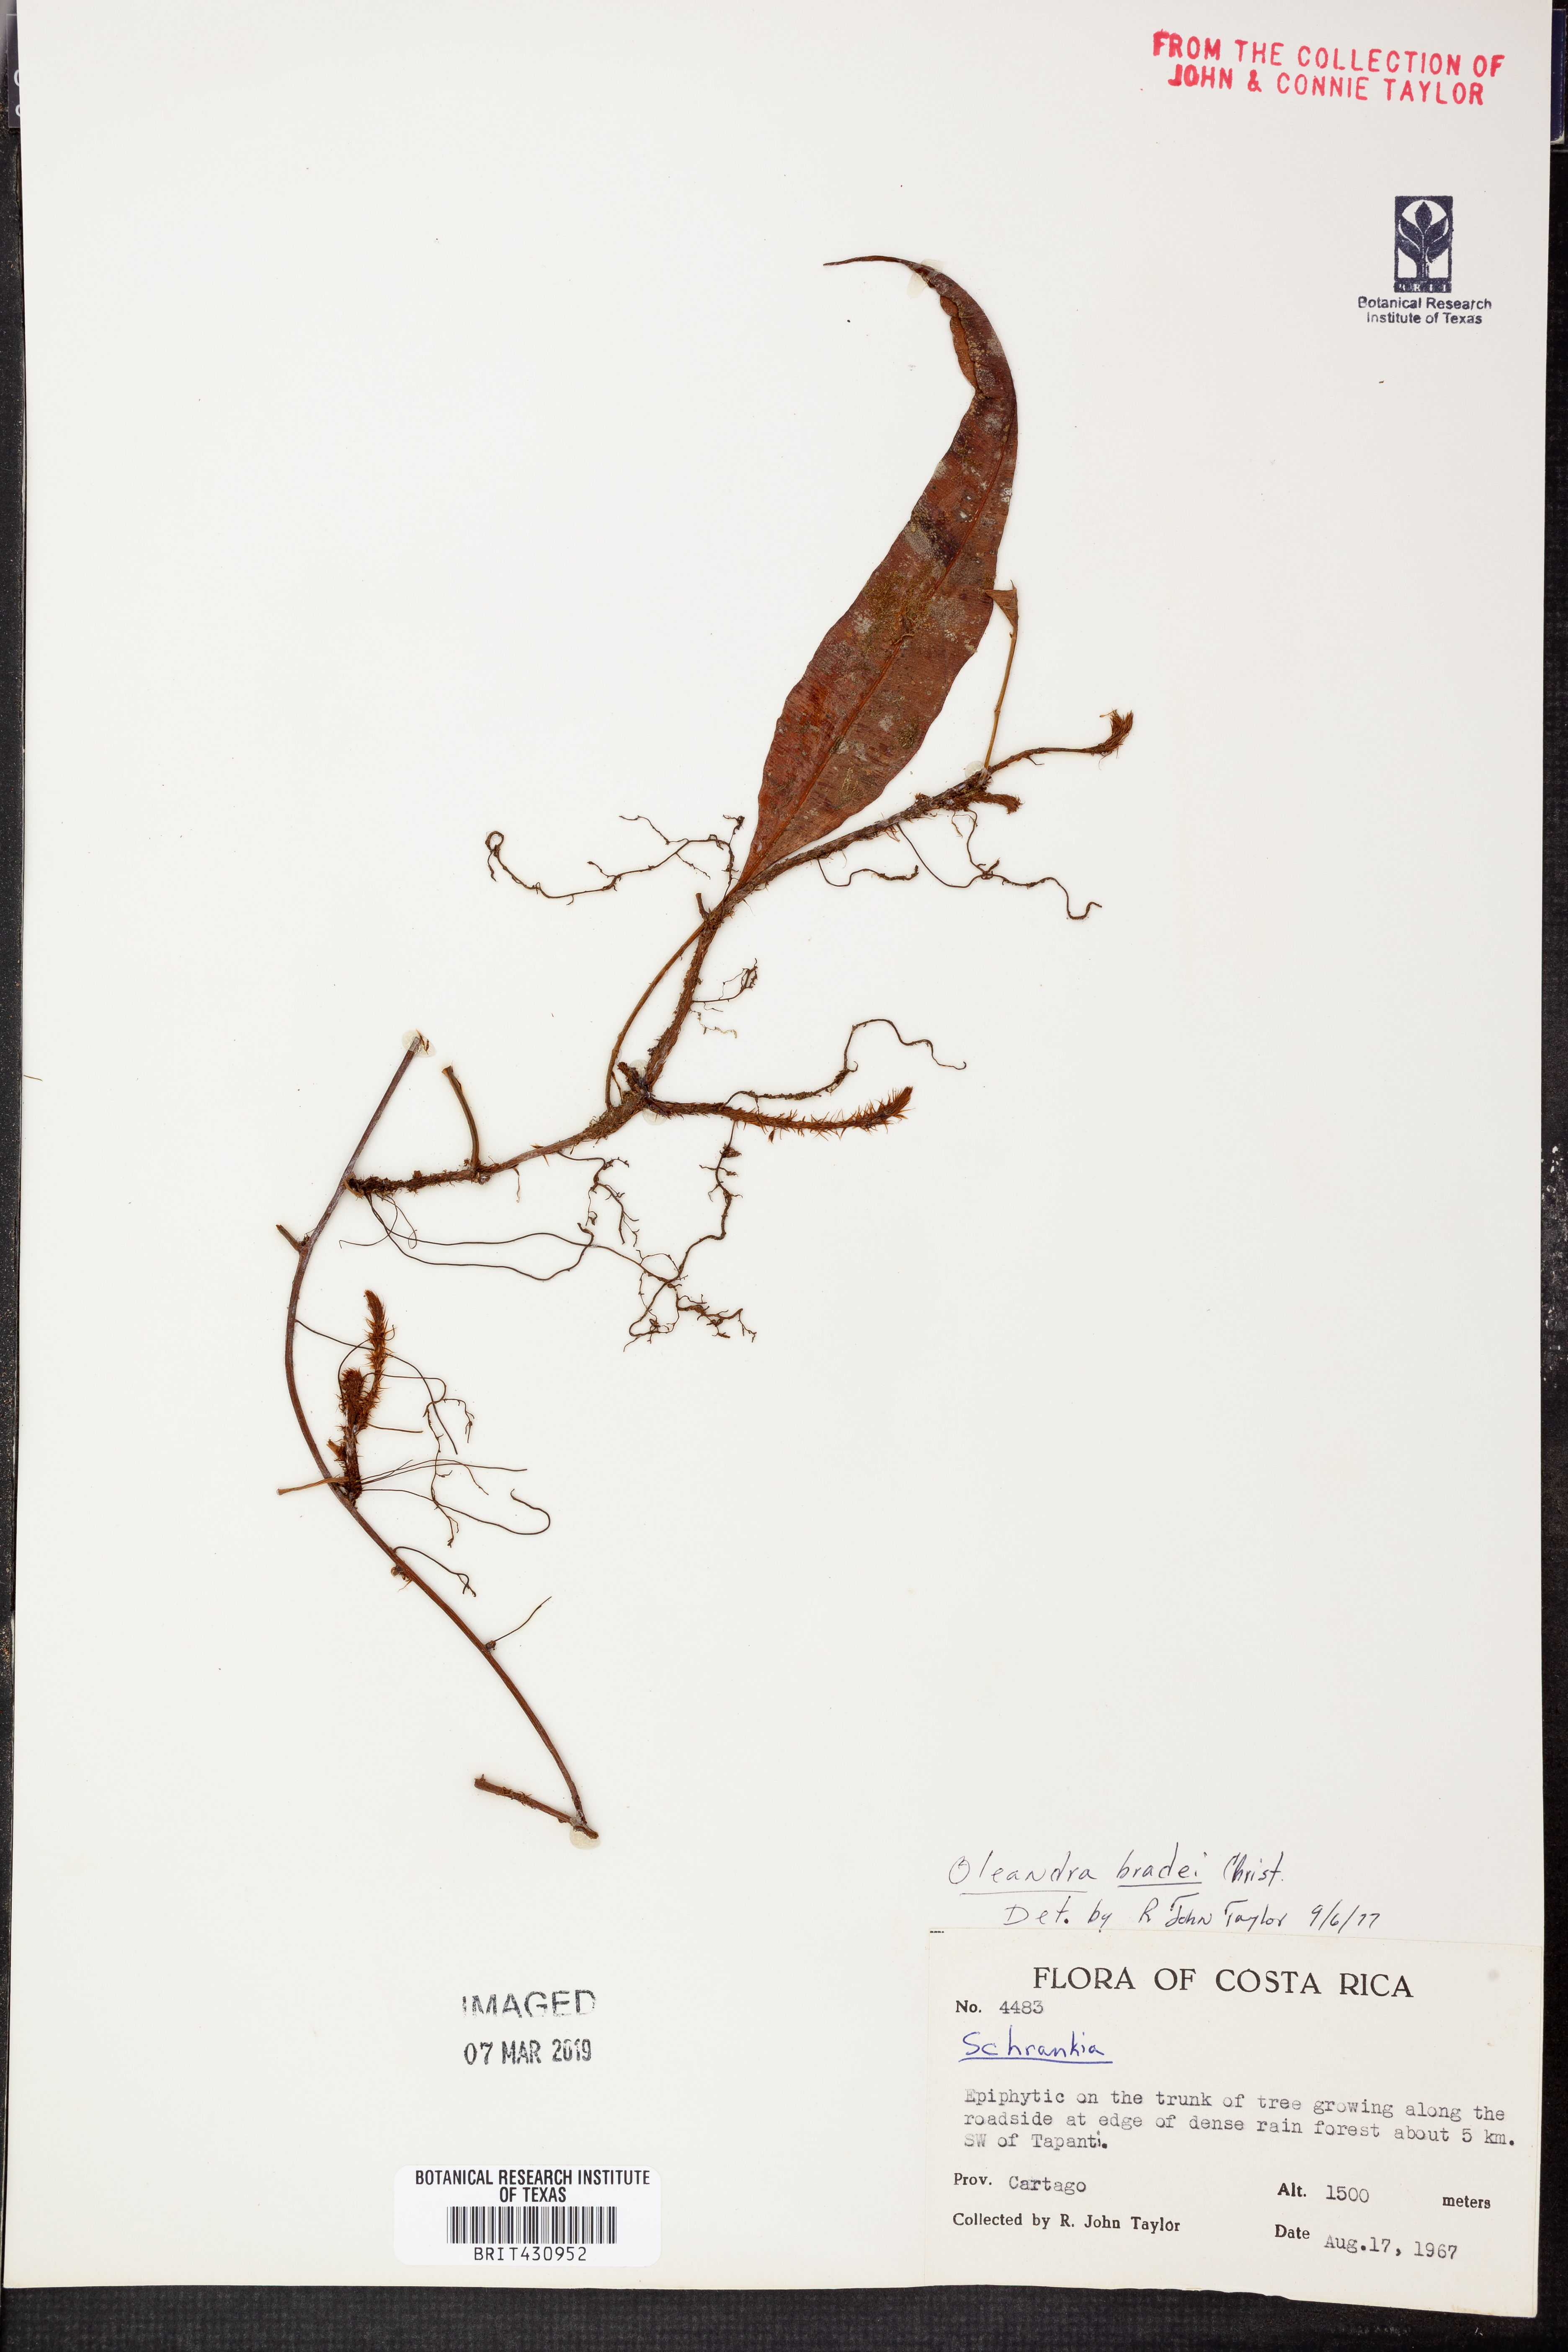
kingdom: Plantae
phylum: Tracheophyta
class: Polypodiopsida
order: Polypodiales
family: Oleandraceae
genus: Oleandra
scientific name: Oleandra bradei
